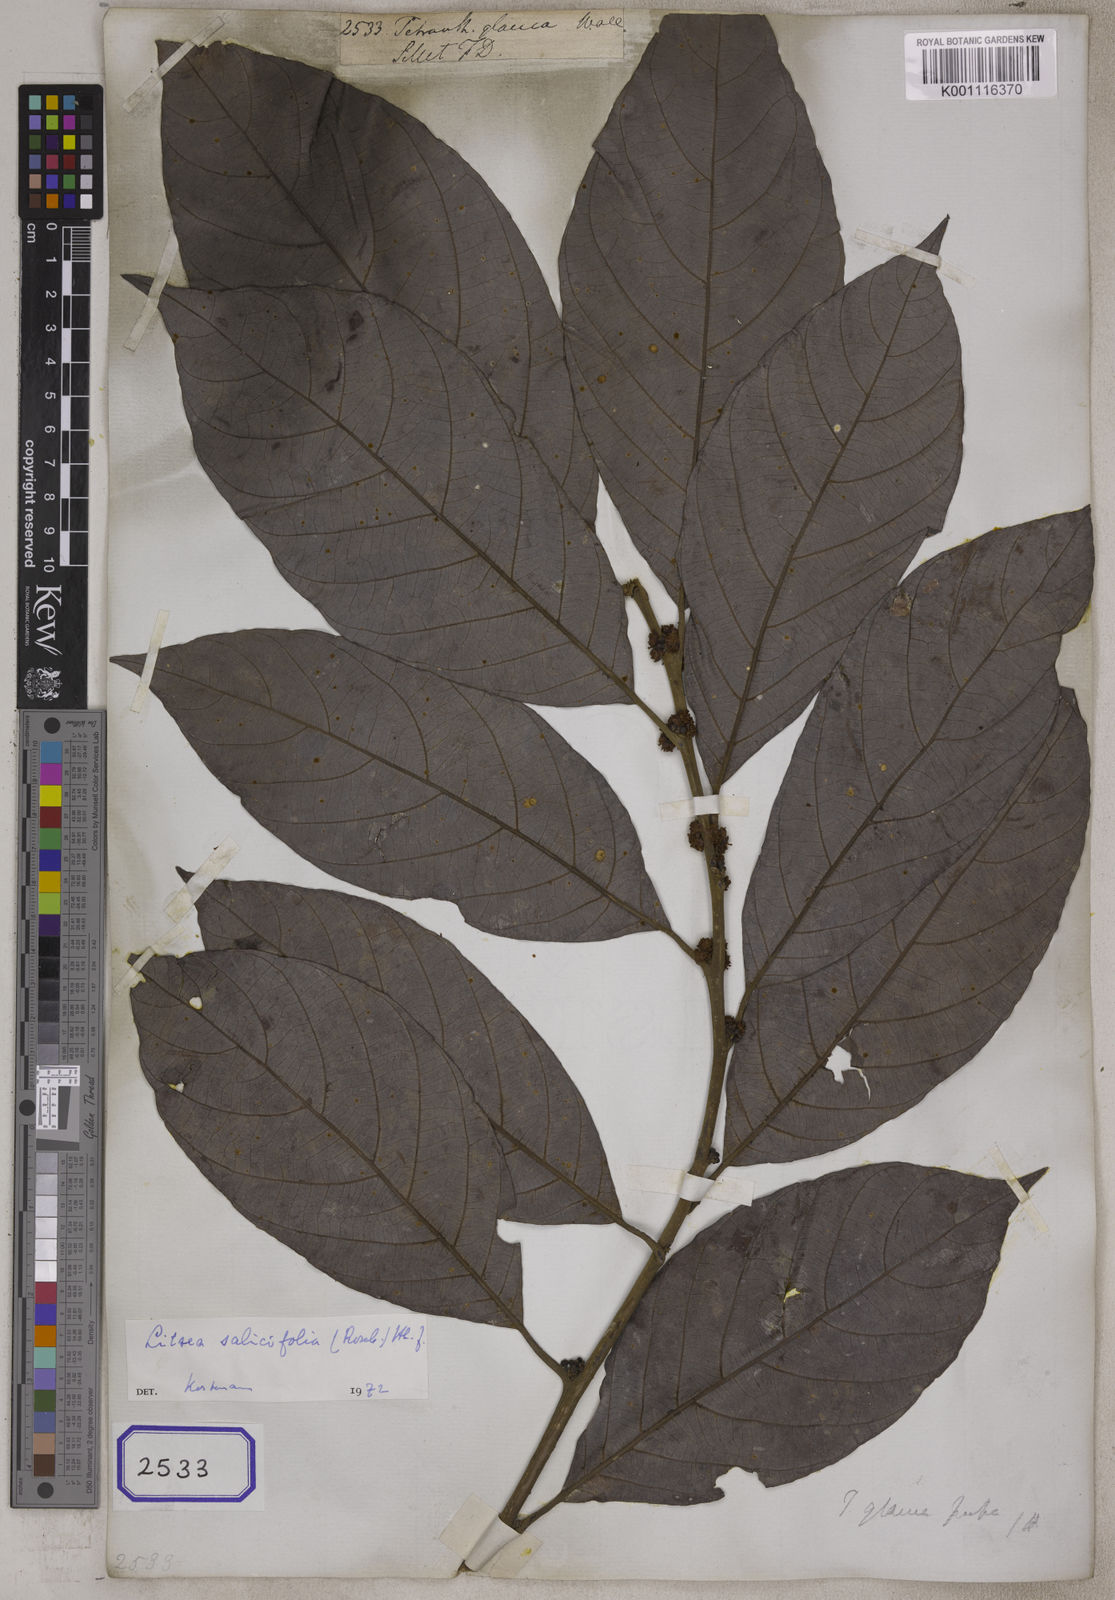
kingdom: Plantae
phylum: Tracheophyta
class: Magnoliopsida
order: Laurales
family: Lauraceae
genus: Litsea
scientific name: Litsea
